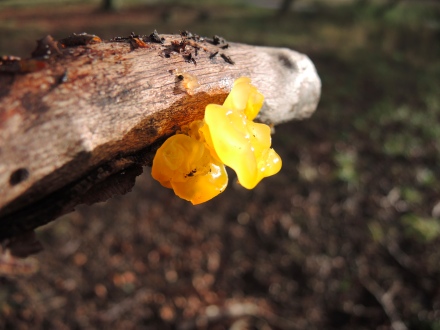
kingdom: Fungi
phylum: Basidiomycota
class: Tremellomycetes
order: Tremellales
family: Tremellaceae
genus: Tremella
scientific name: Tremella mesenterica
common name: gul bævresvamp
